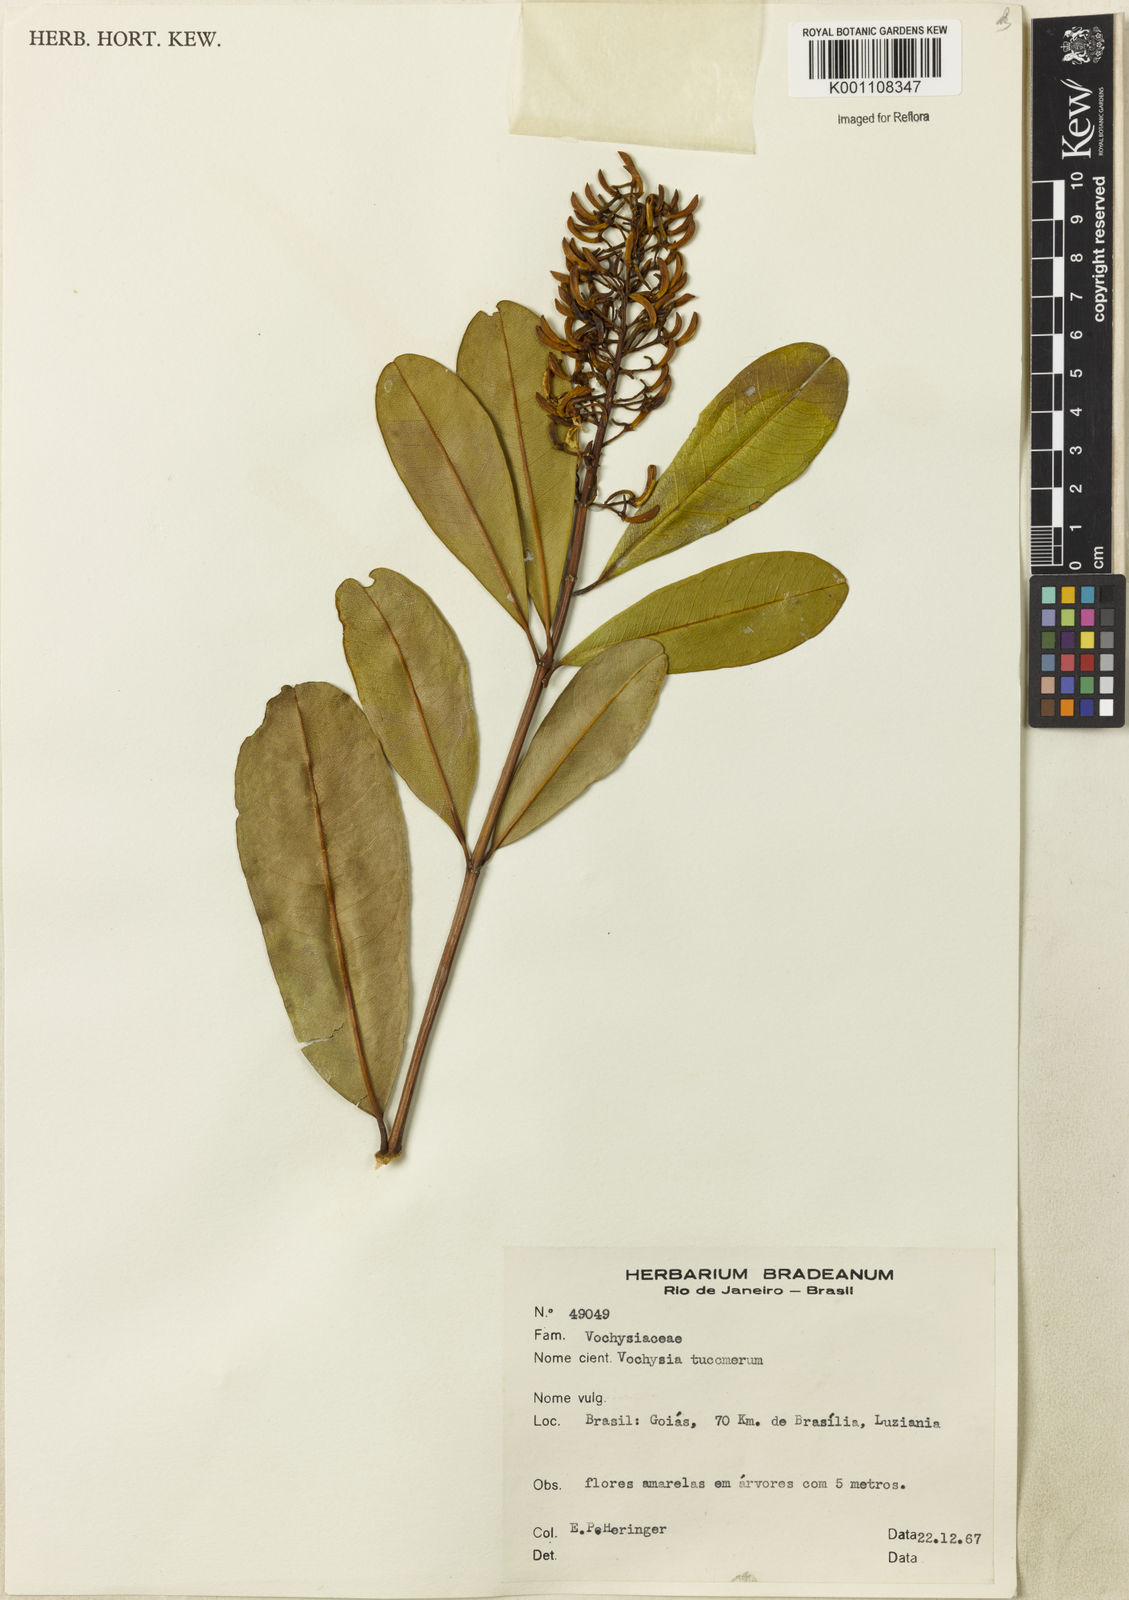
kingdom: Plantae
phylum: Tracheophyta
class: Magnoliopsida
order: Myrtales
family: Vochysiaceae
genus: Vochysia
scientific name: Vochysia tucanorum
